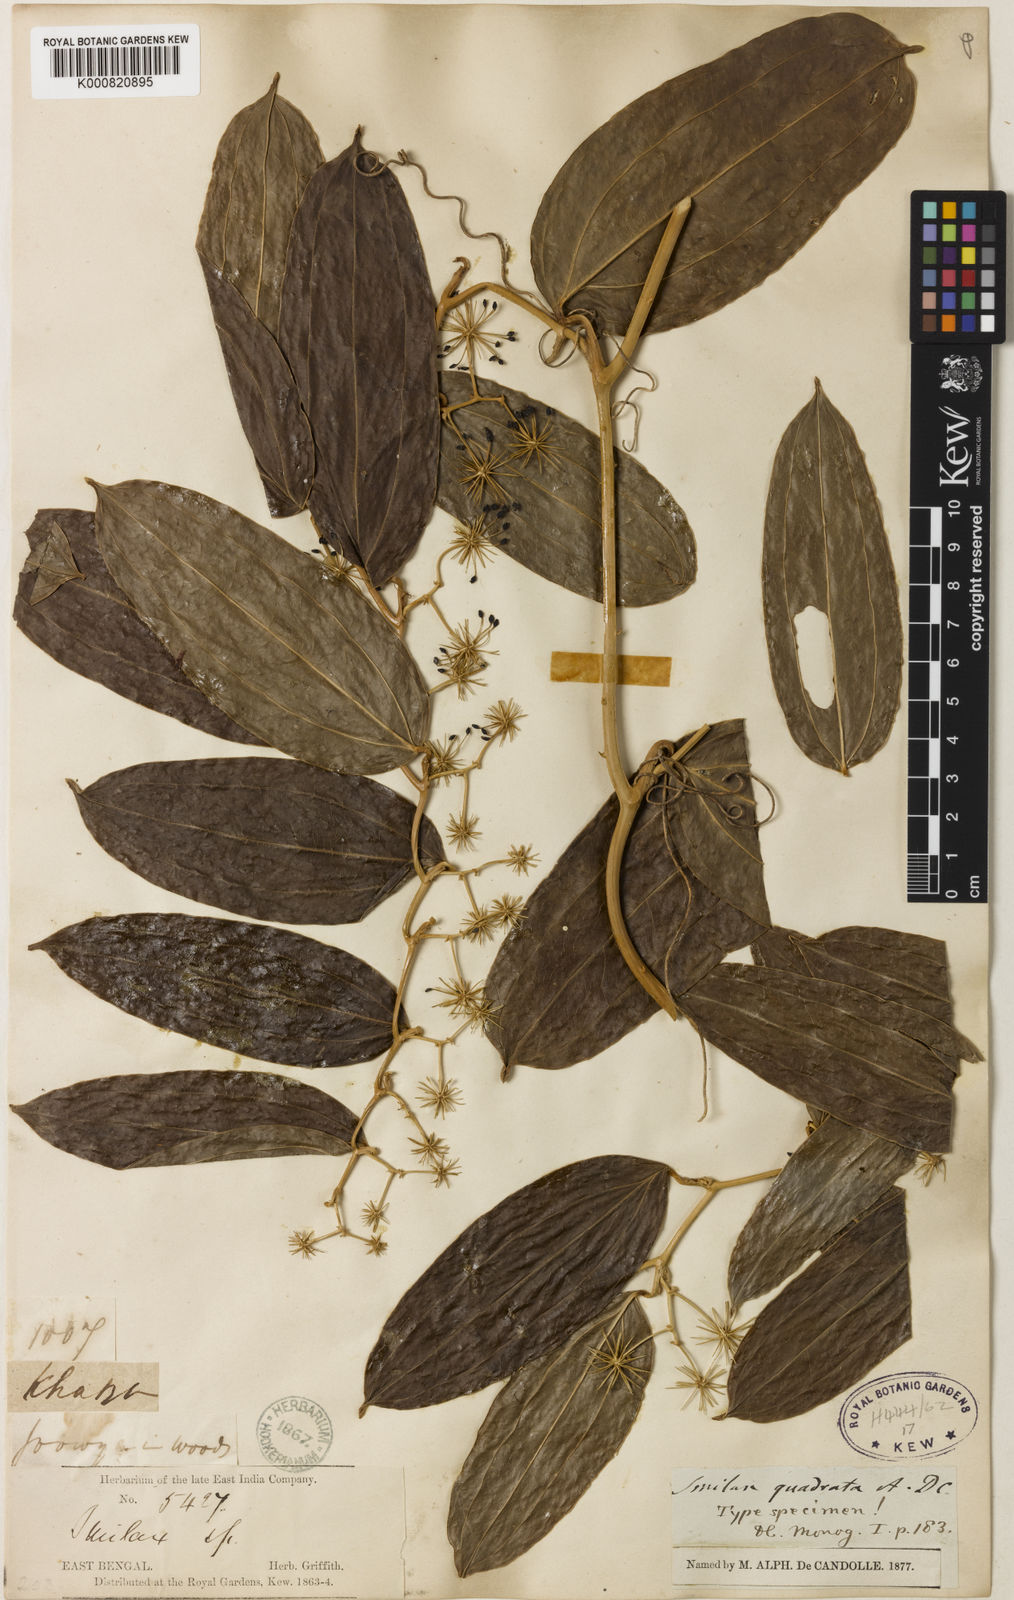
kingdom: Plantae
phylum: Tracheophyta
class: Liliopsida
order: Liliales
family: Smilacaceae
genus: Smilax
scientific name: Smilax quadrata
